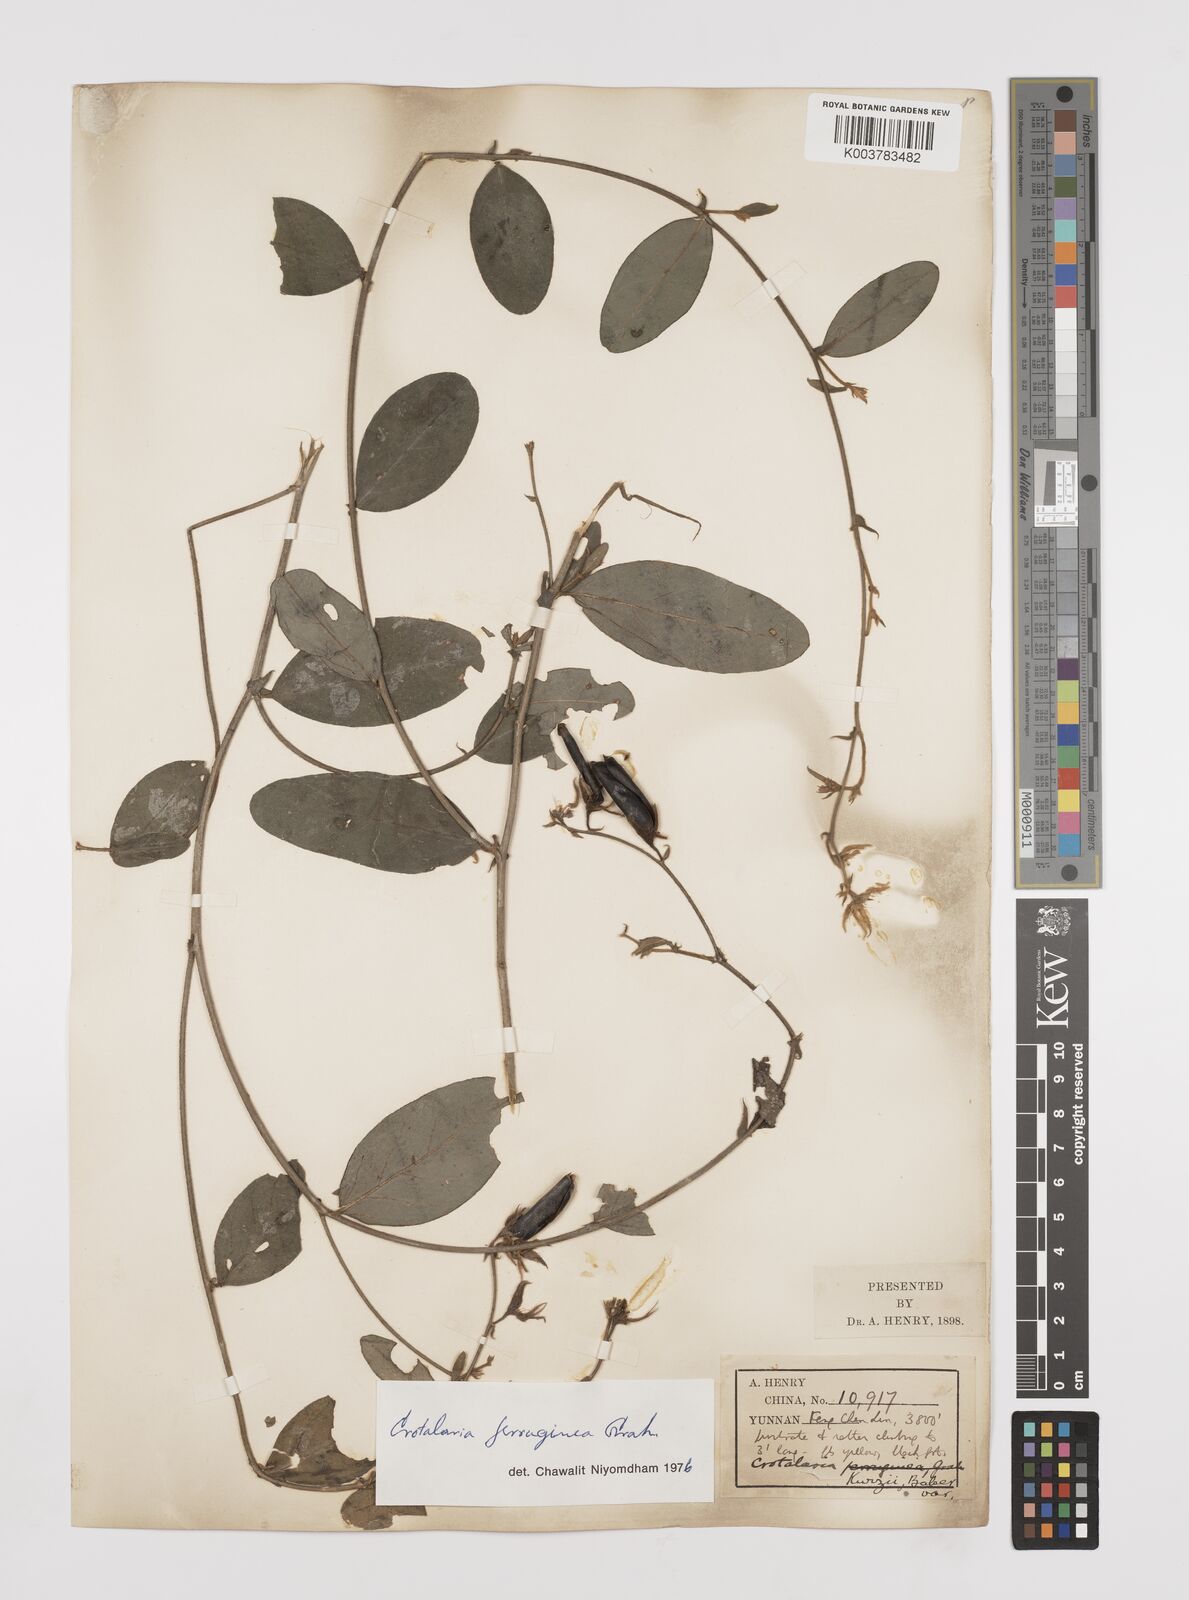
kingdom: Plantae
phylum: Tracheophyta
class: Magnoliopsida
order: Fabales
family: Fabaceae
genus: Crotalaria
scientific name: Crotalaria kurzii
